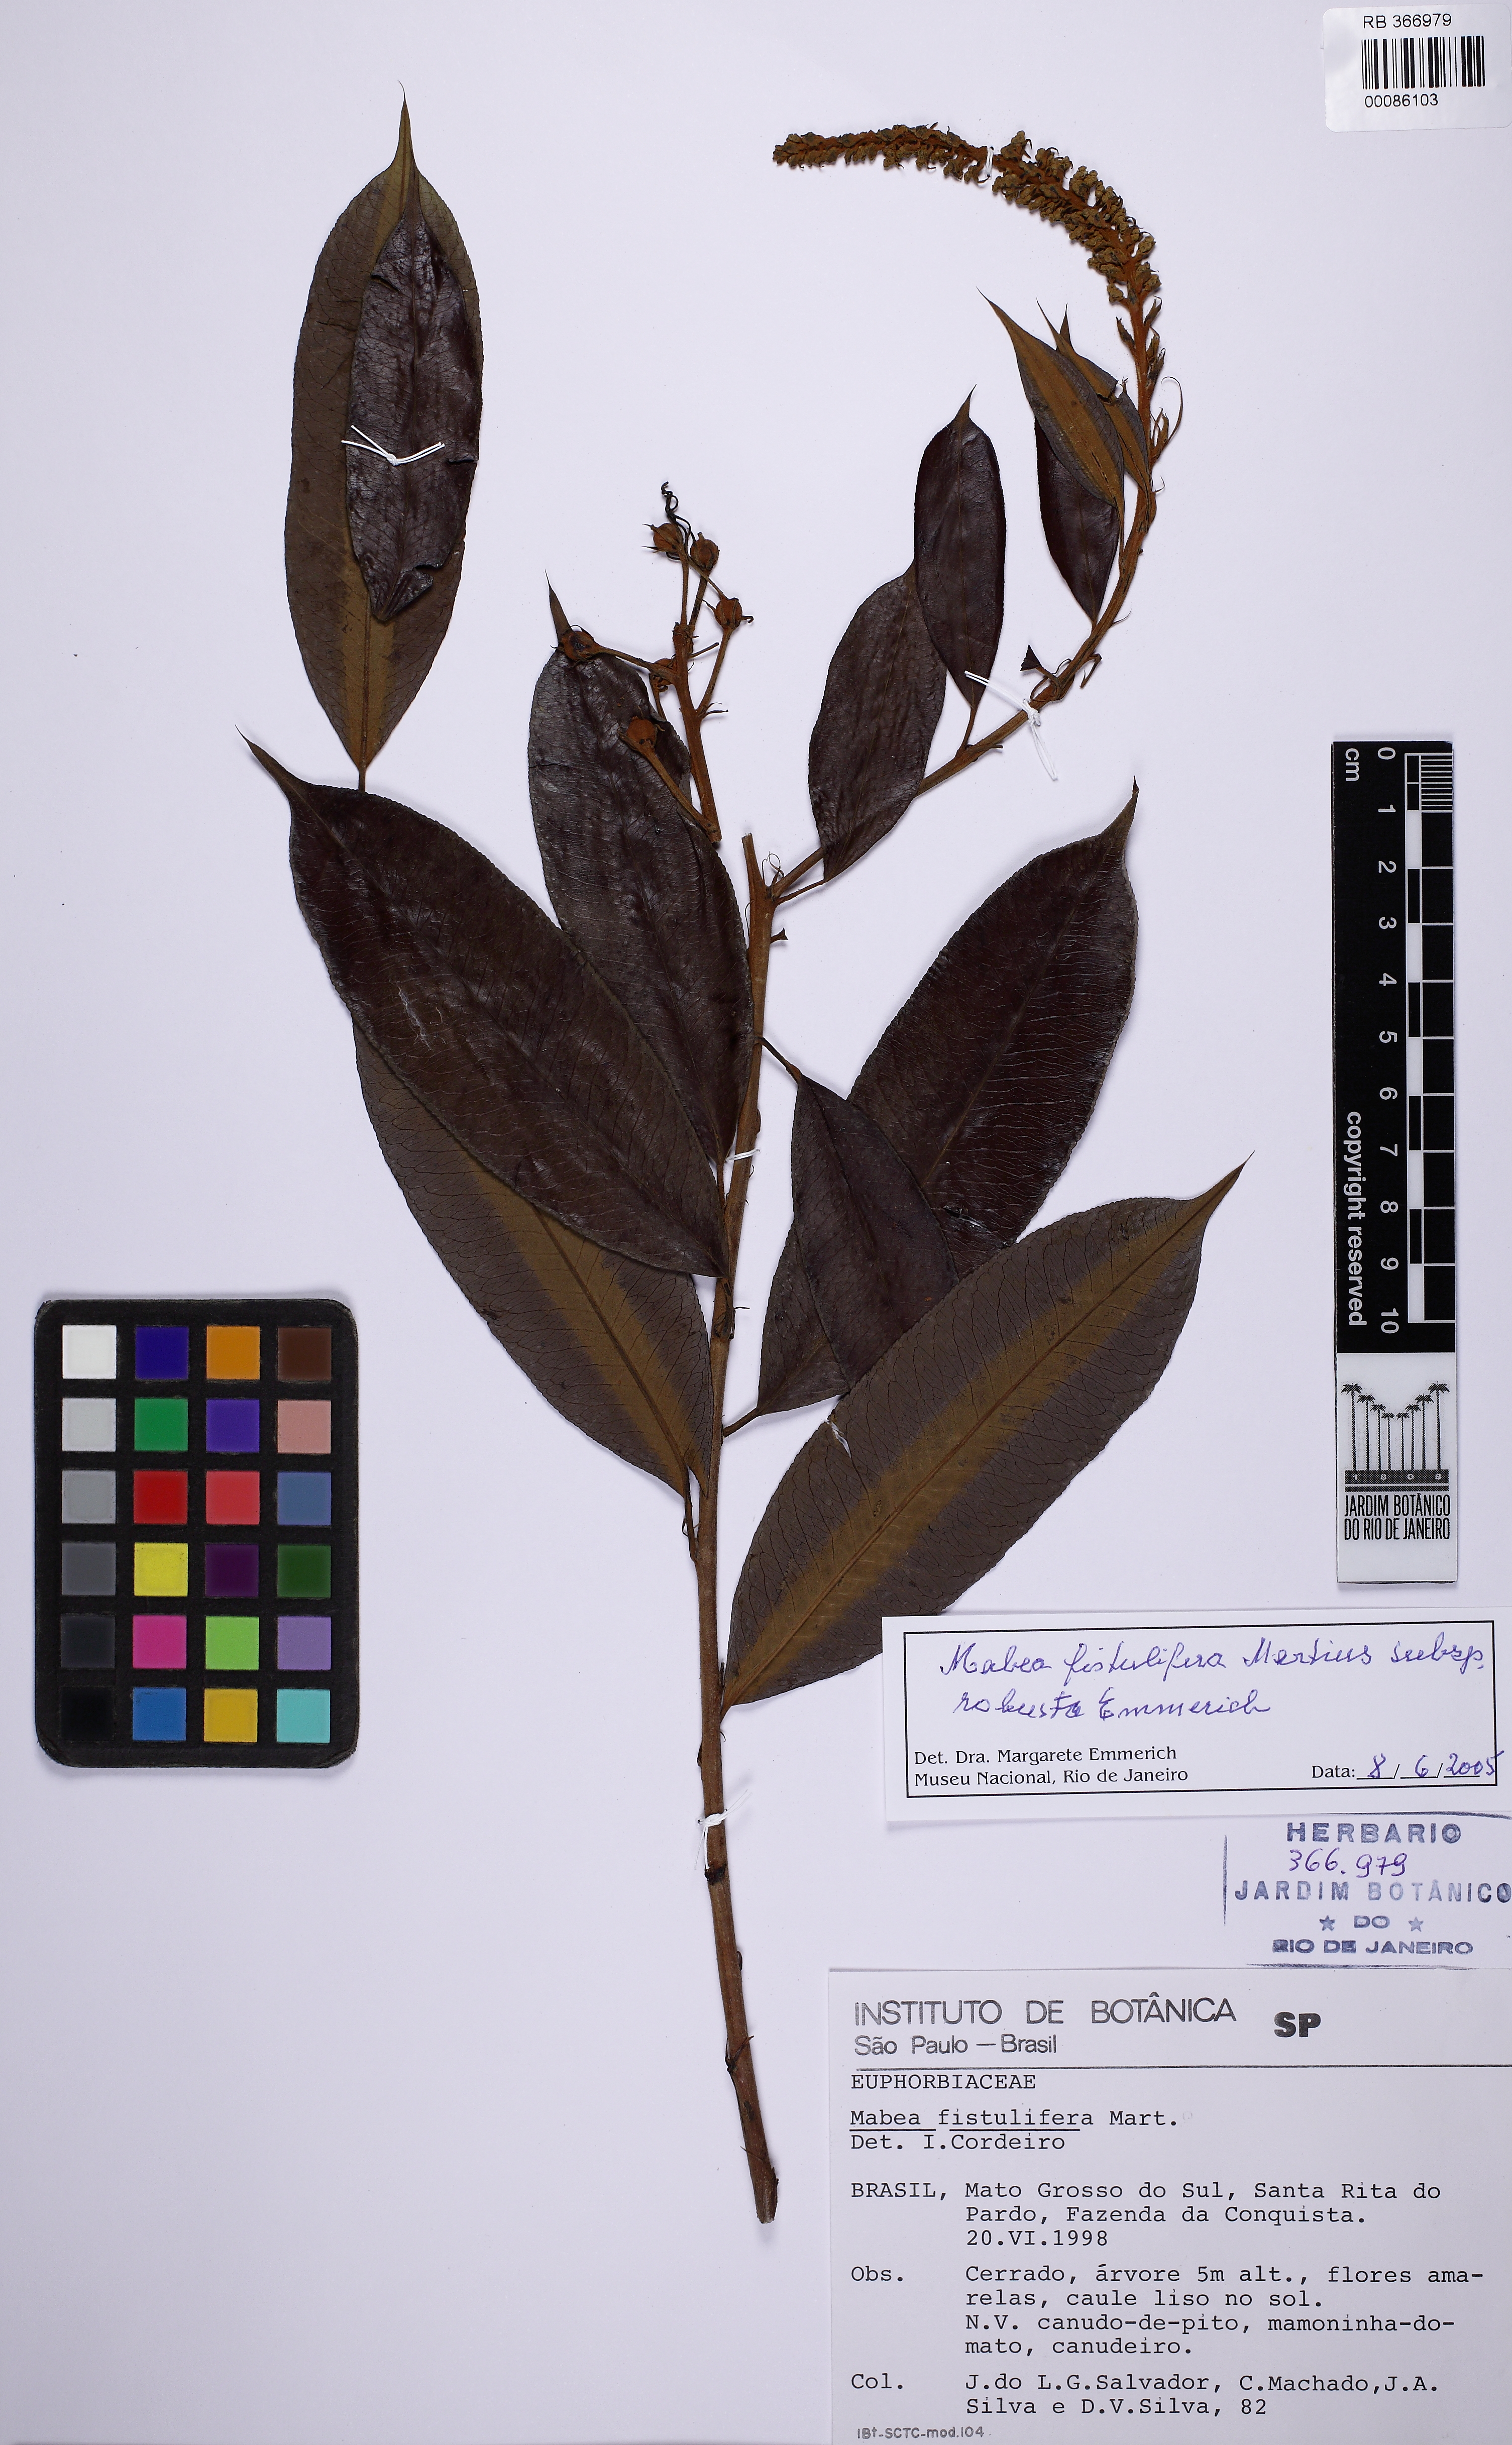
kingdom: Plantae
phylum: Tracheophyta
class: Magnoliopsida
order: Malpighiales
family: Euphorbiaceae
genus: Mabea
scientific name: Mabea fistulifera
